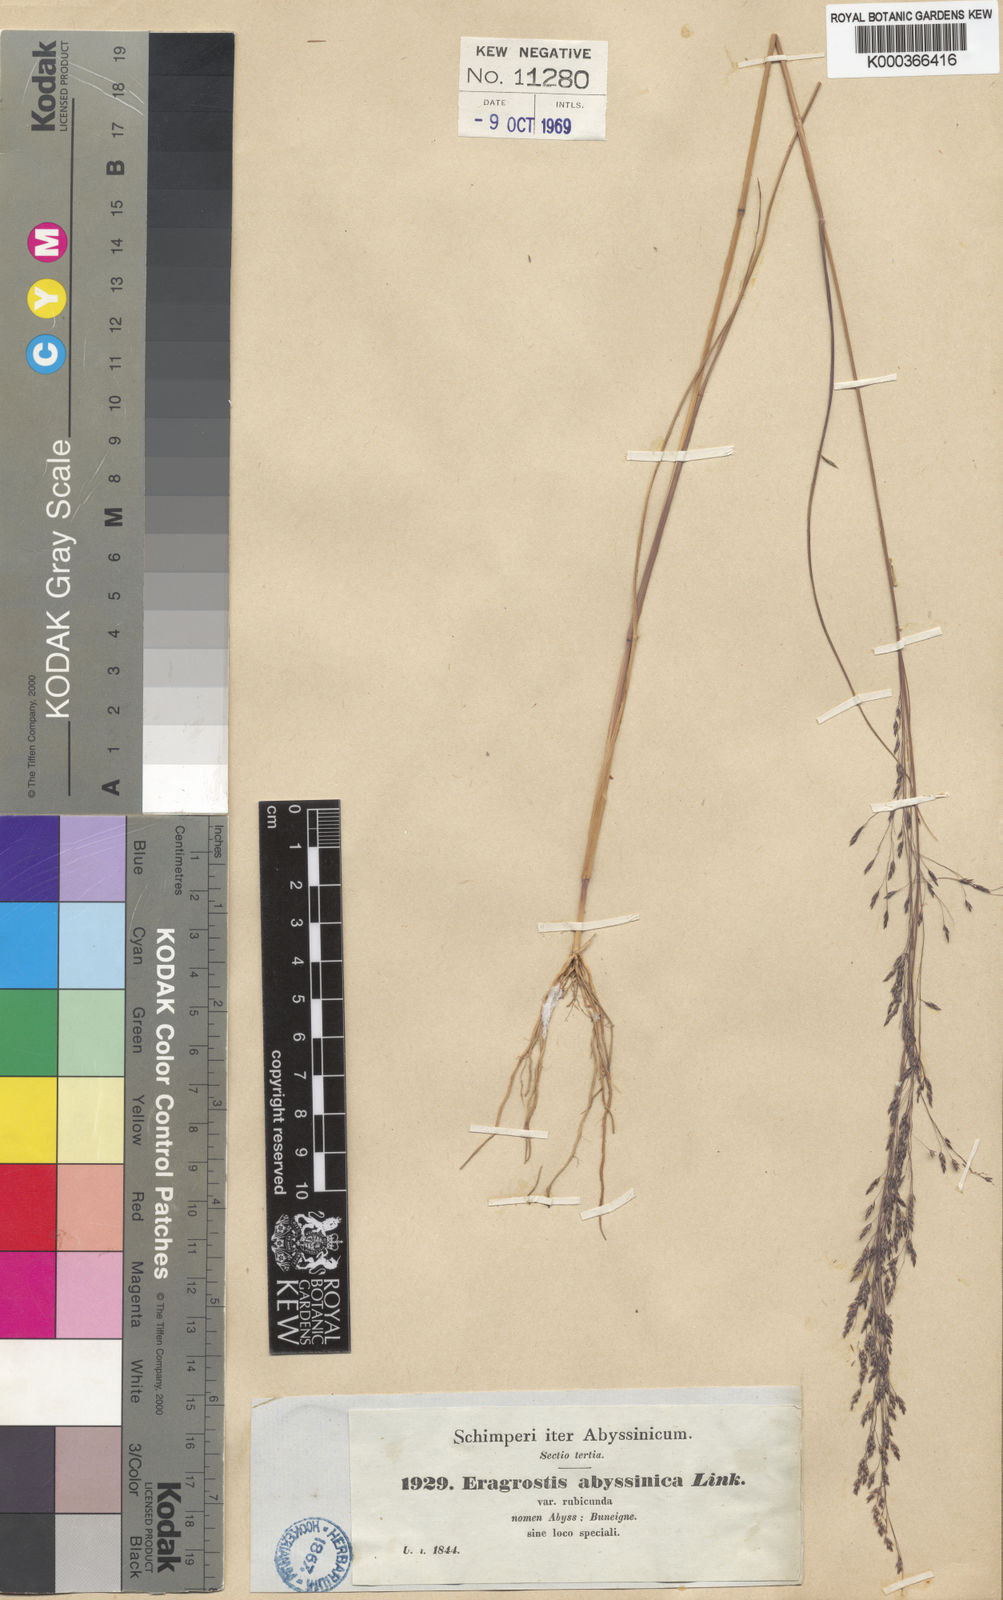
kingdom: Plantae
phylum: Tracheophyta
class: Liliopsida
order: Poales
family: Poaceae
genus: Eragrostis
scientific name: Eragrostis tef
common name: Teff
